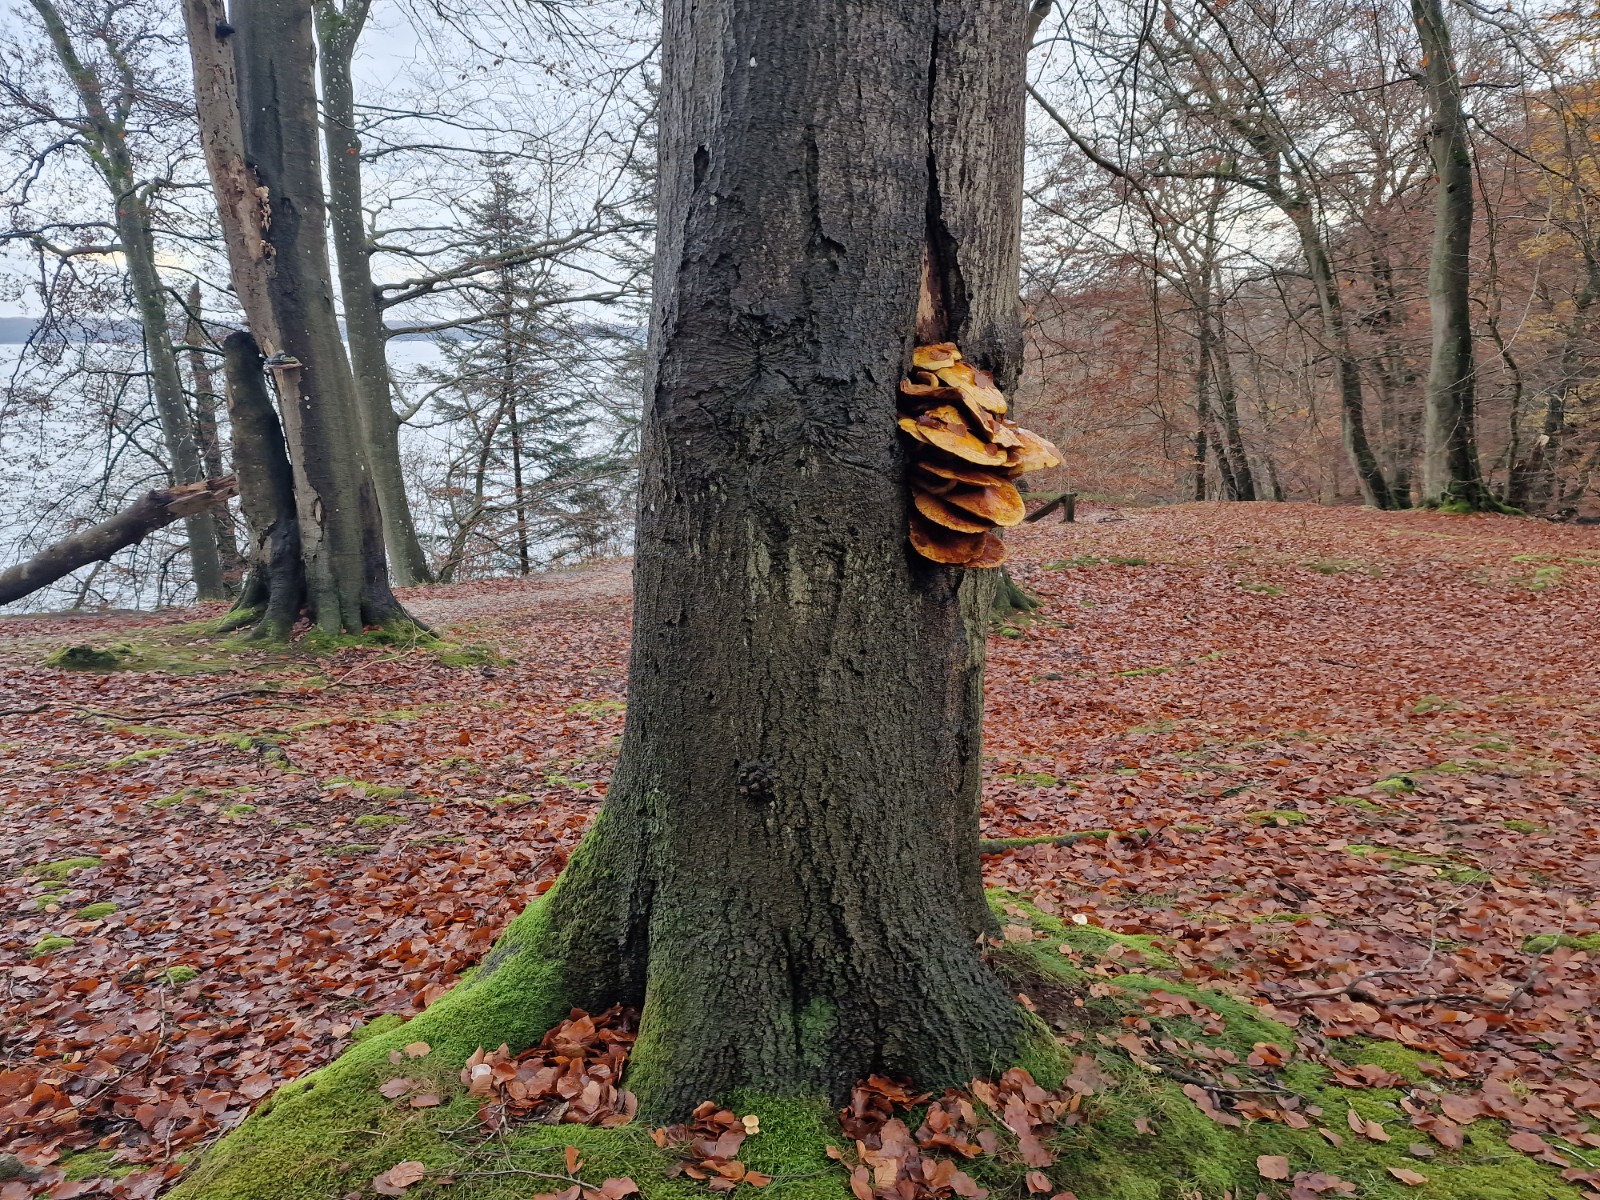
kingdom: Fungi
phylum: Basidiomycota
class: Agaricomycetes
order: Agaricales
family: Strophariaceae
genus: Pholiota
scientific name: Pholiota adiposa
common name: højtsiddende skælhat
